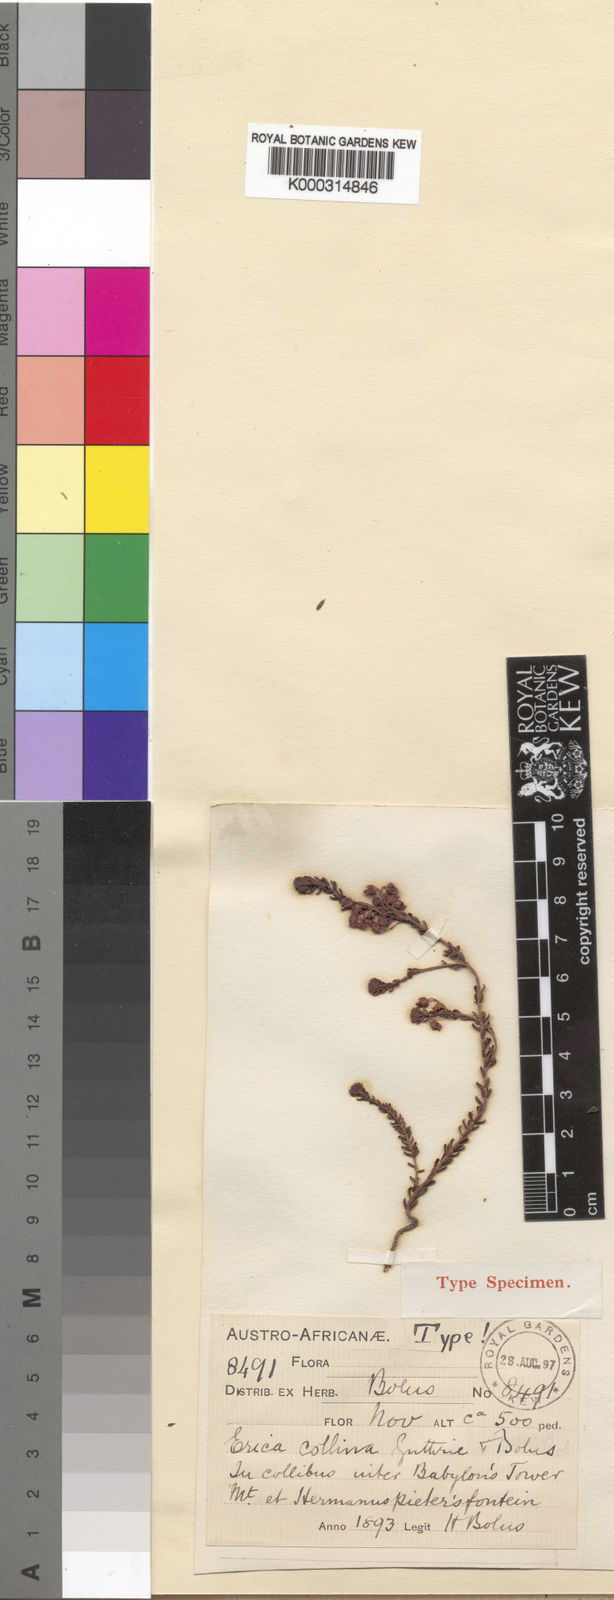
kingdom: Plantae
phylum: Tracheophyta
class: Magnoliopsida
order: Ericales
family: Ericaceae
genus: Erica
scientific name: Erica collina
